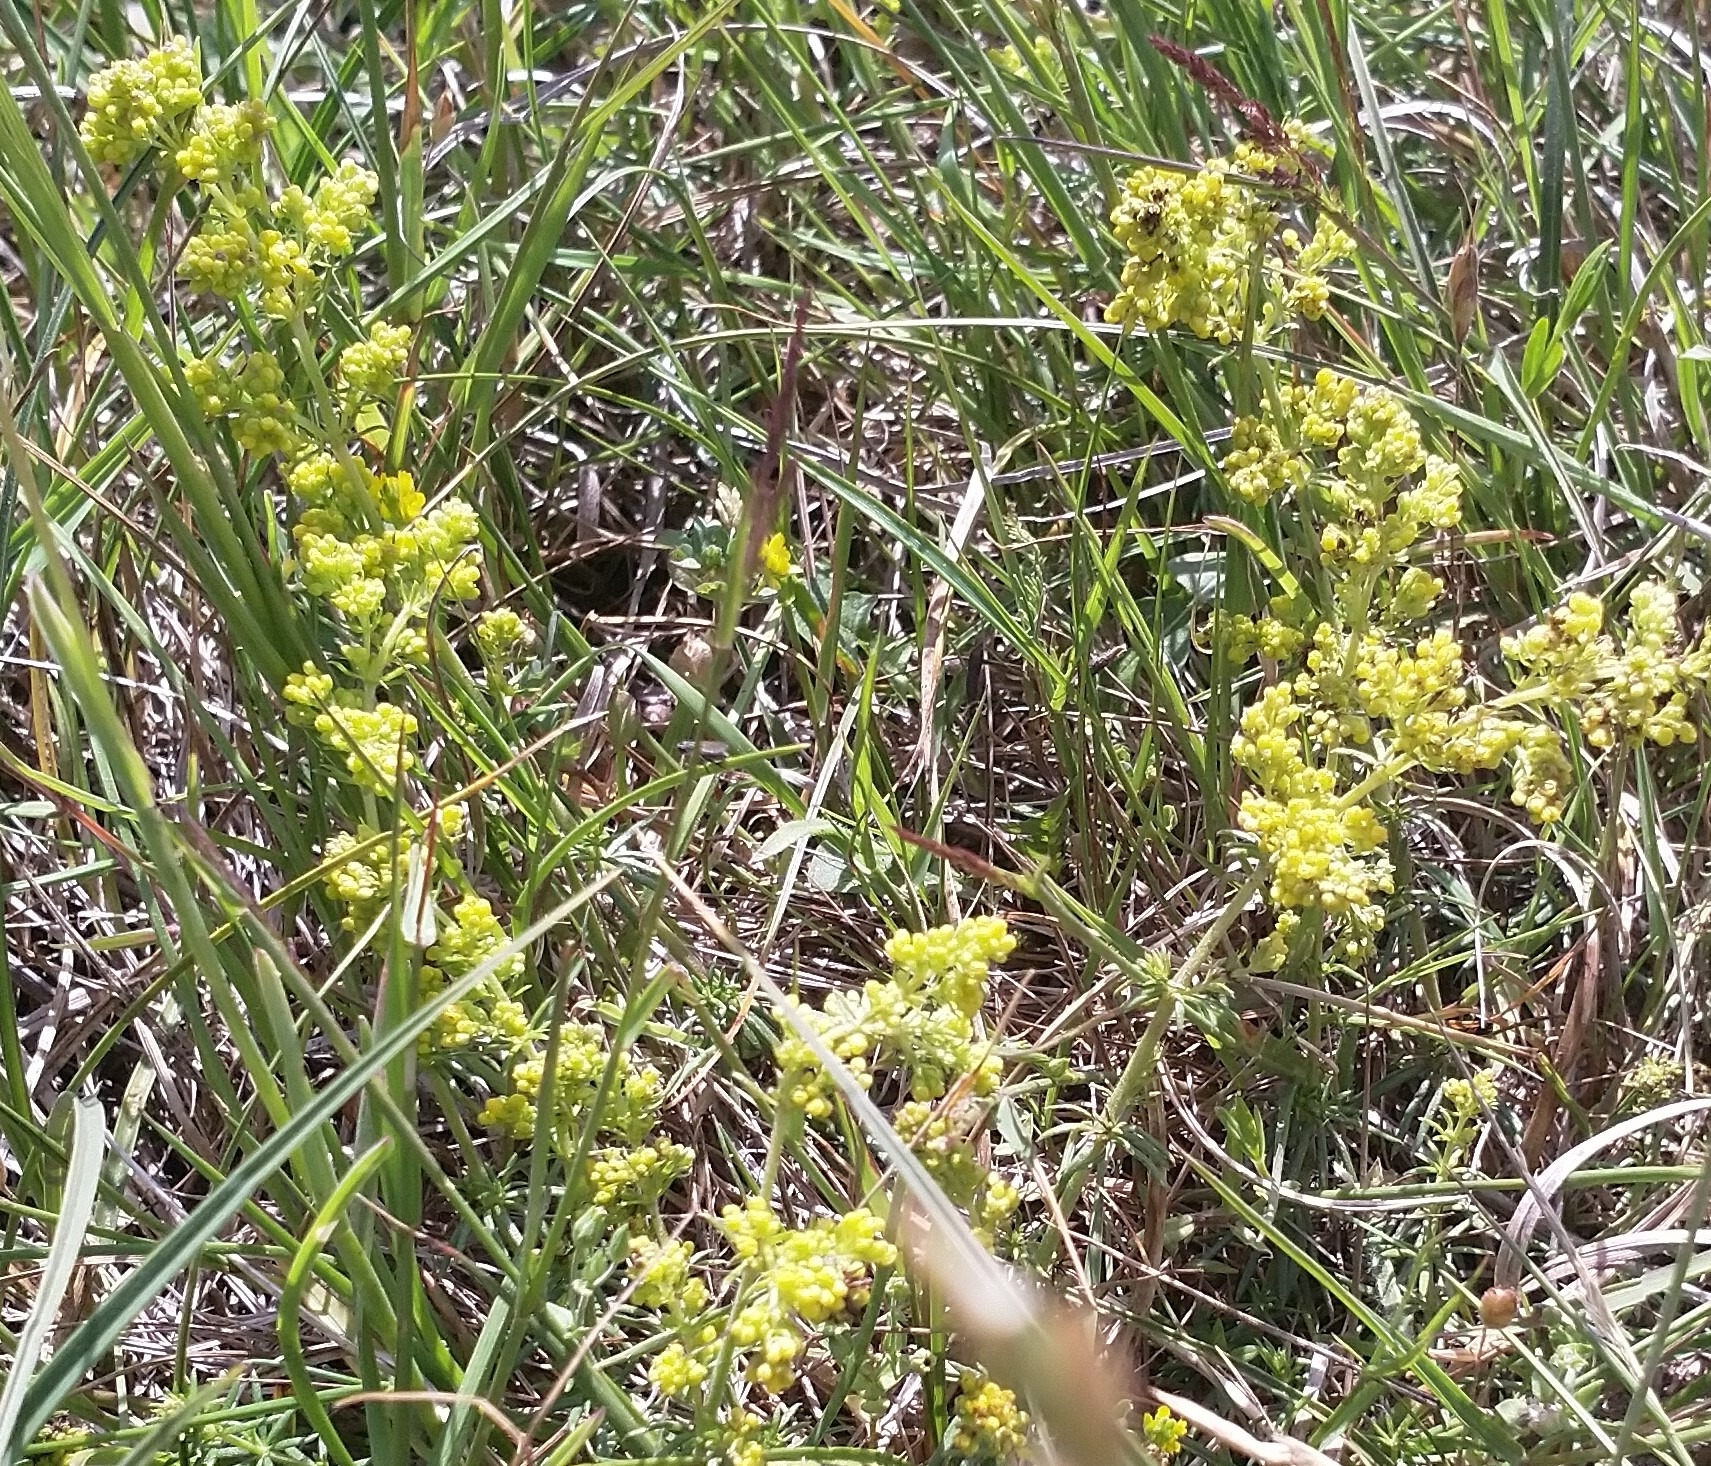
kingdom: Plantae
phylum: Tracheophyta
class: Magnoliopsida
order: Gentianales
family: Rubiaceae
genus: Galium
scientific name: Galium verum
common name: Gul snerre
